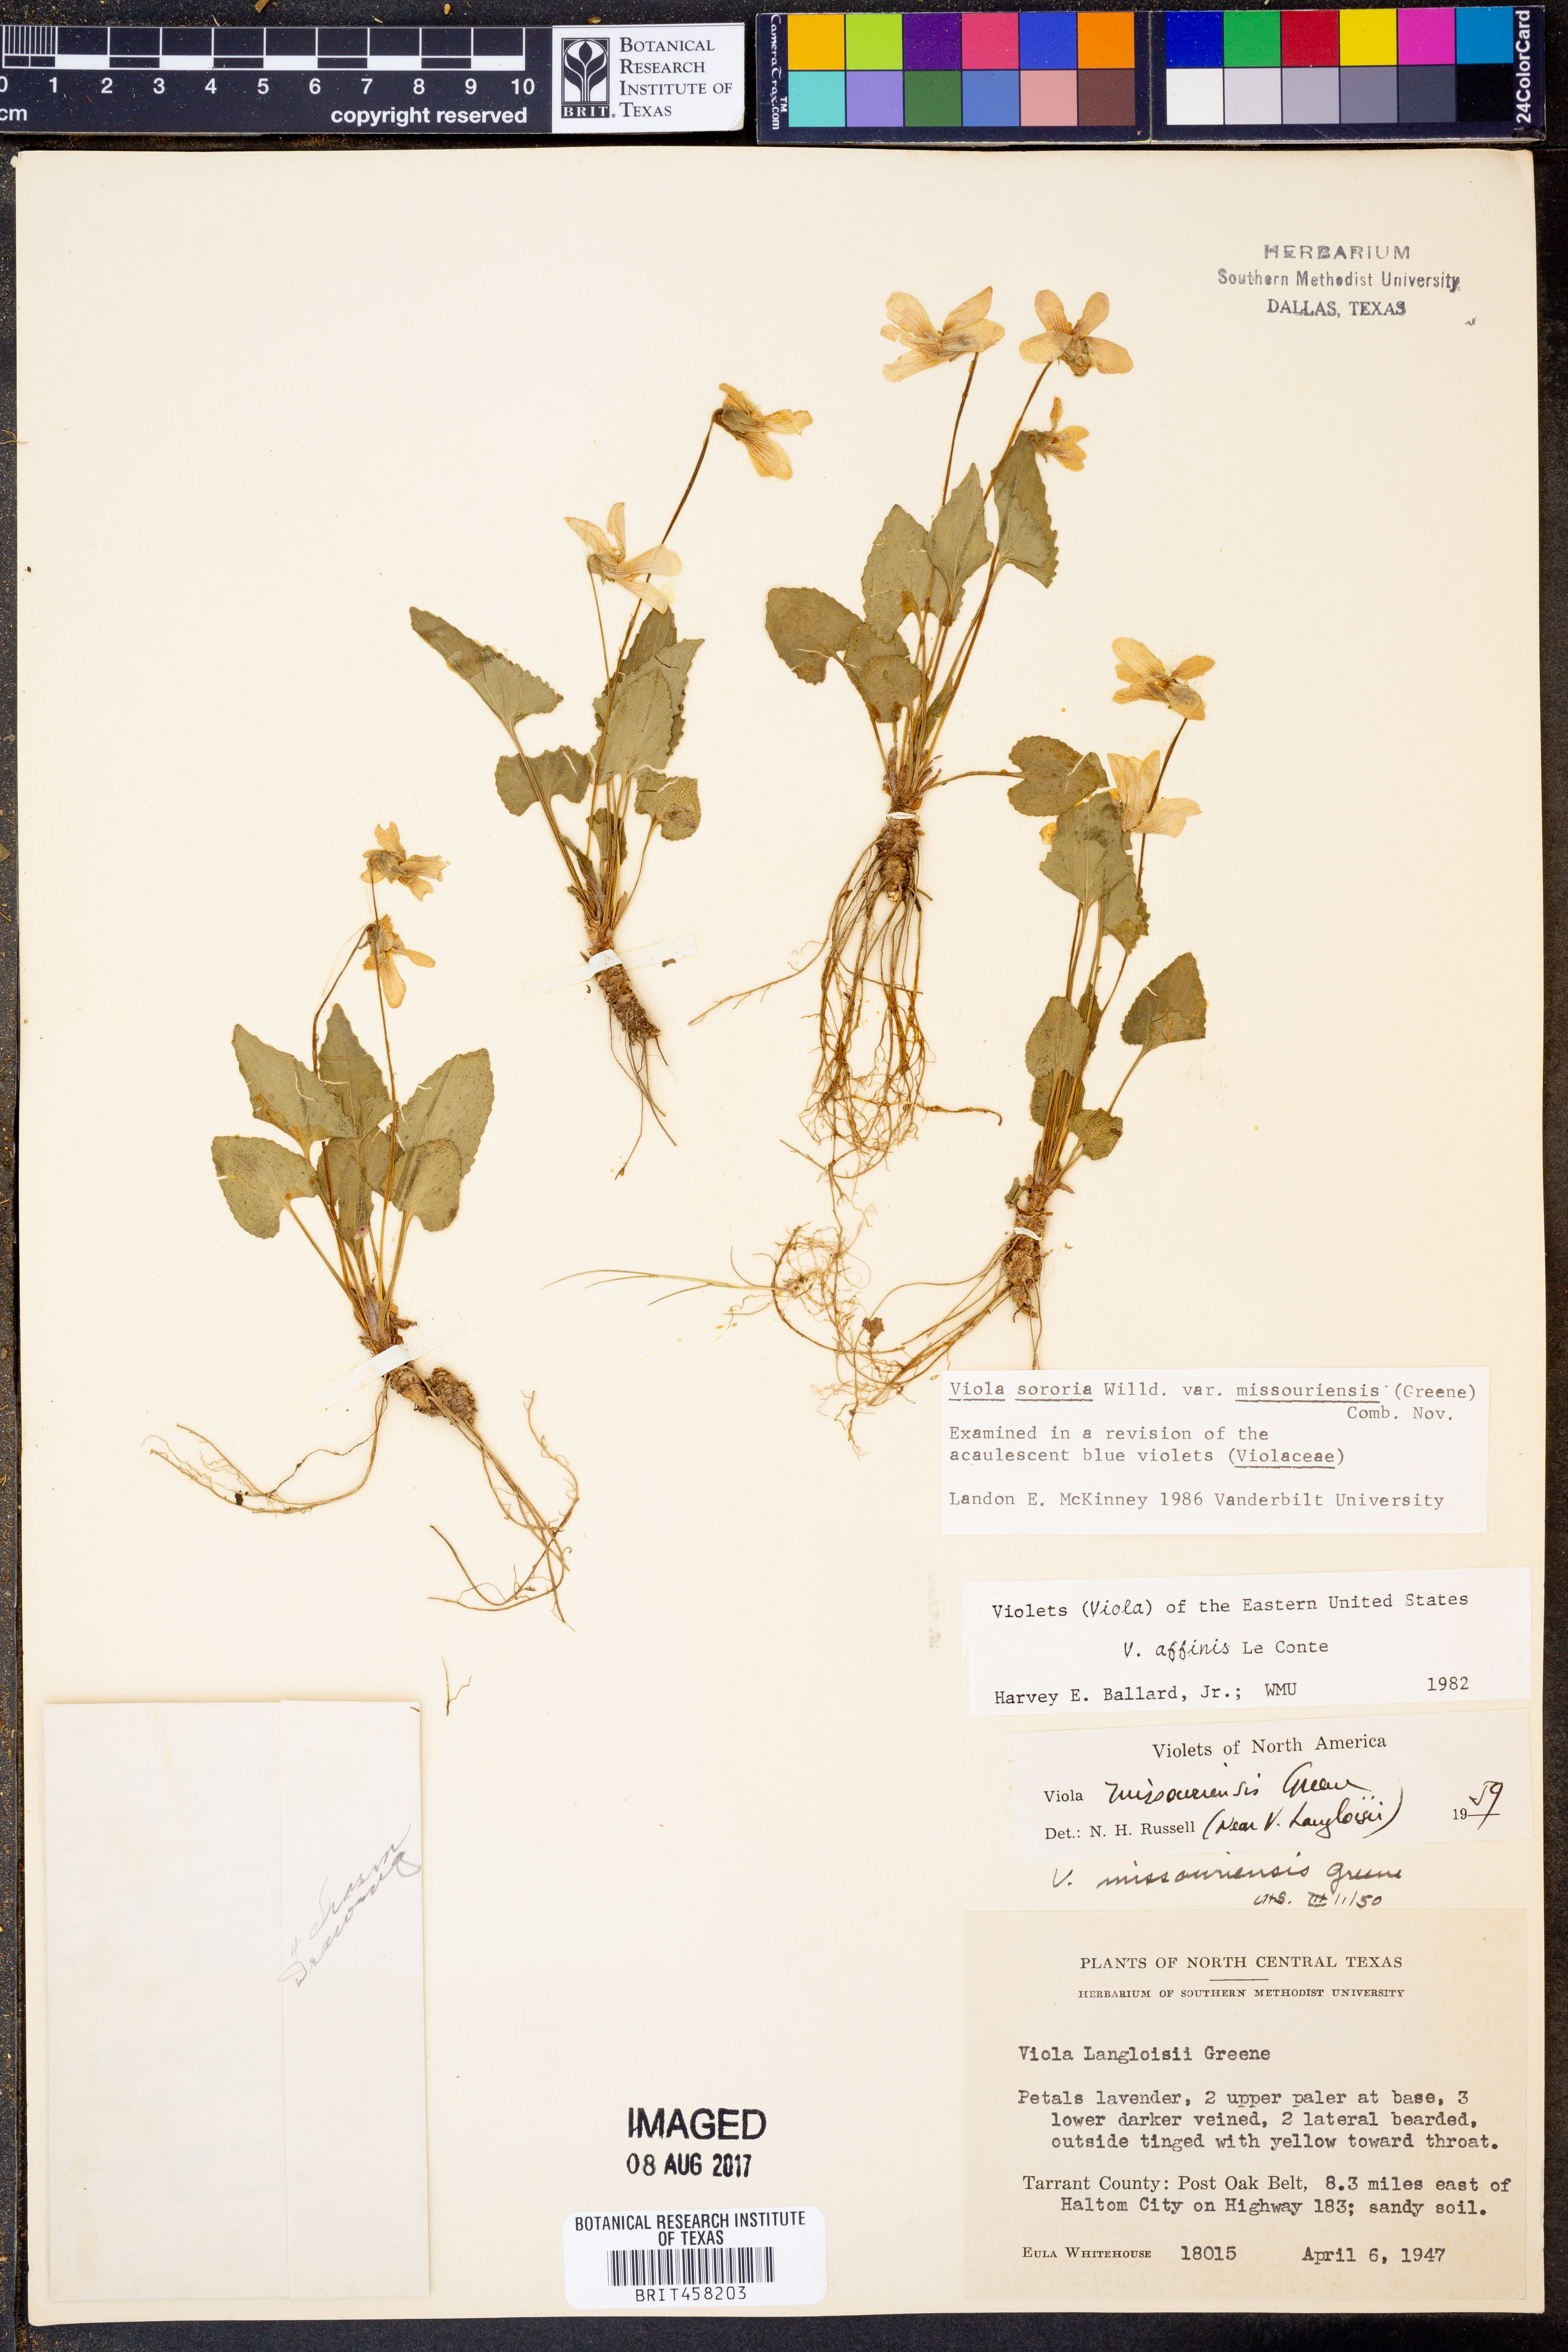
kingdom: Plantae
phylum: Tracheophyta
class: Magnoliopsida
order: Malpighiales
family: Violaceae
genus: Viola
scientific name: Viola missouriensis
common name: Missouri violet
